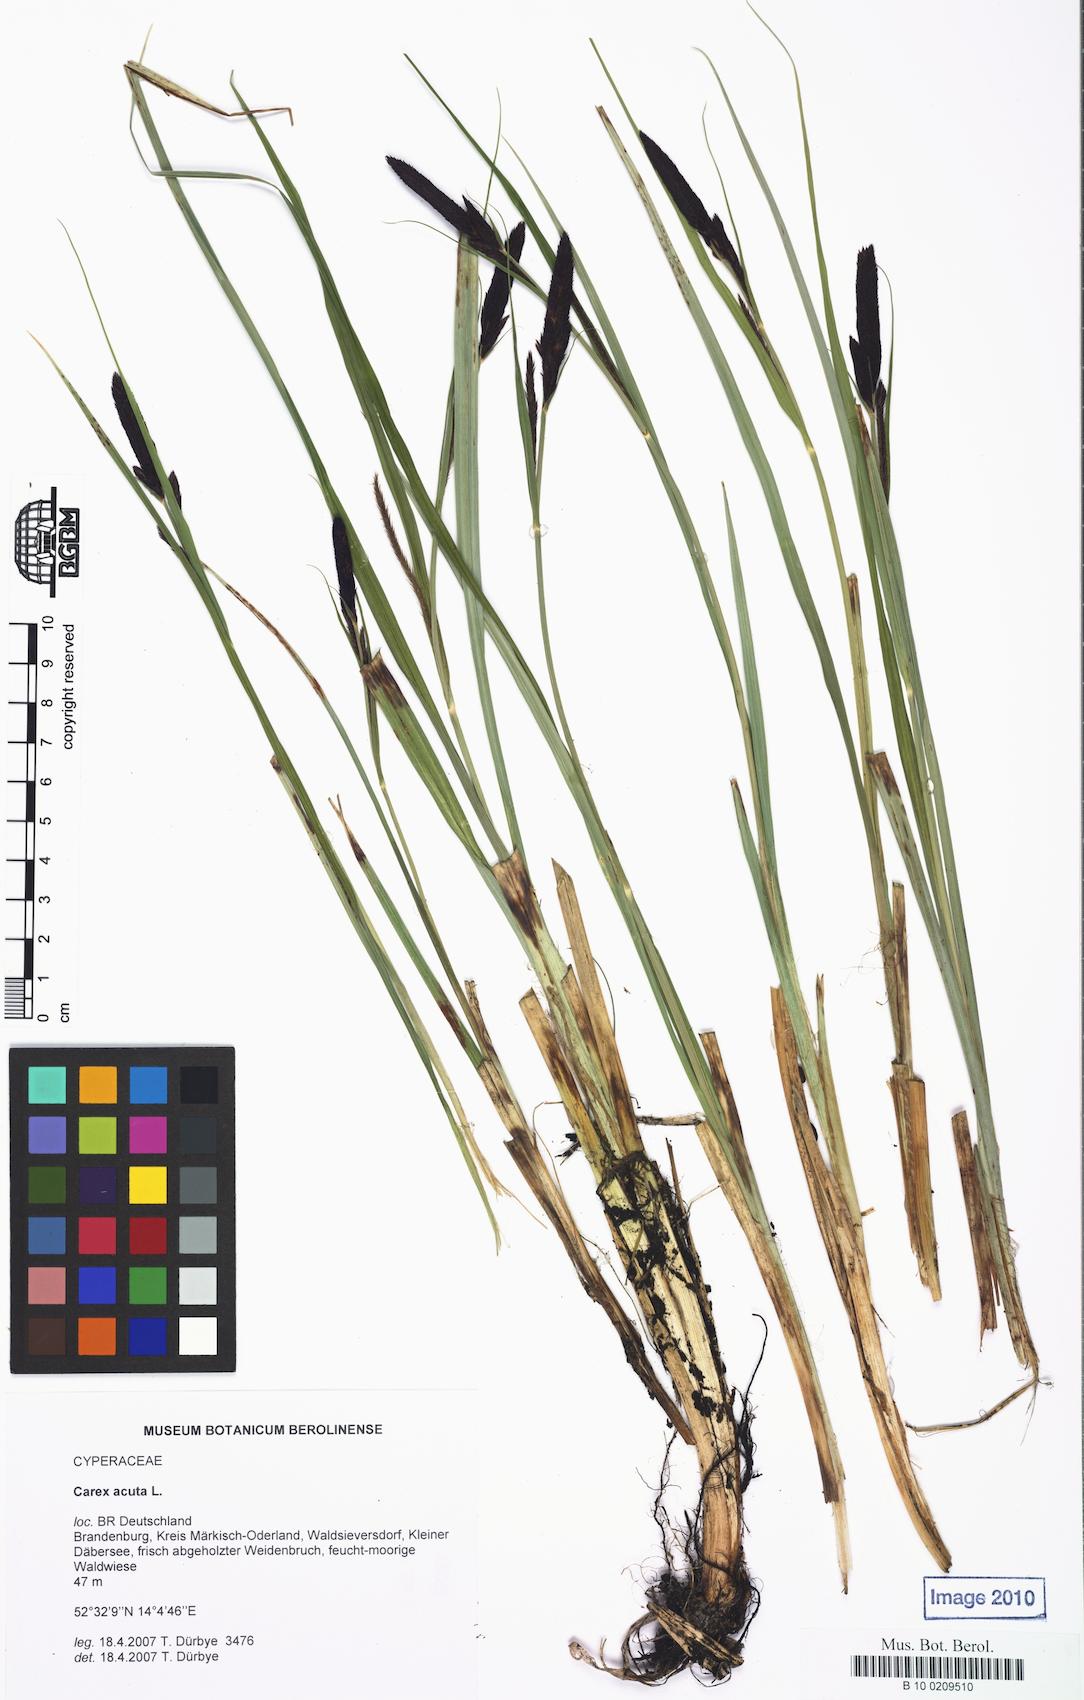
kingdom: Plantae
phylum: Tracheophyta
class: Liliopsida
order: Poales
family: Cyperaceae
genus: Carex
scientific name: Carex acuta
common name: Slender tufted-sedge
